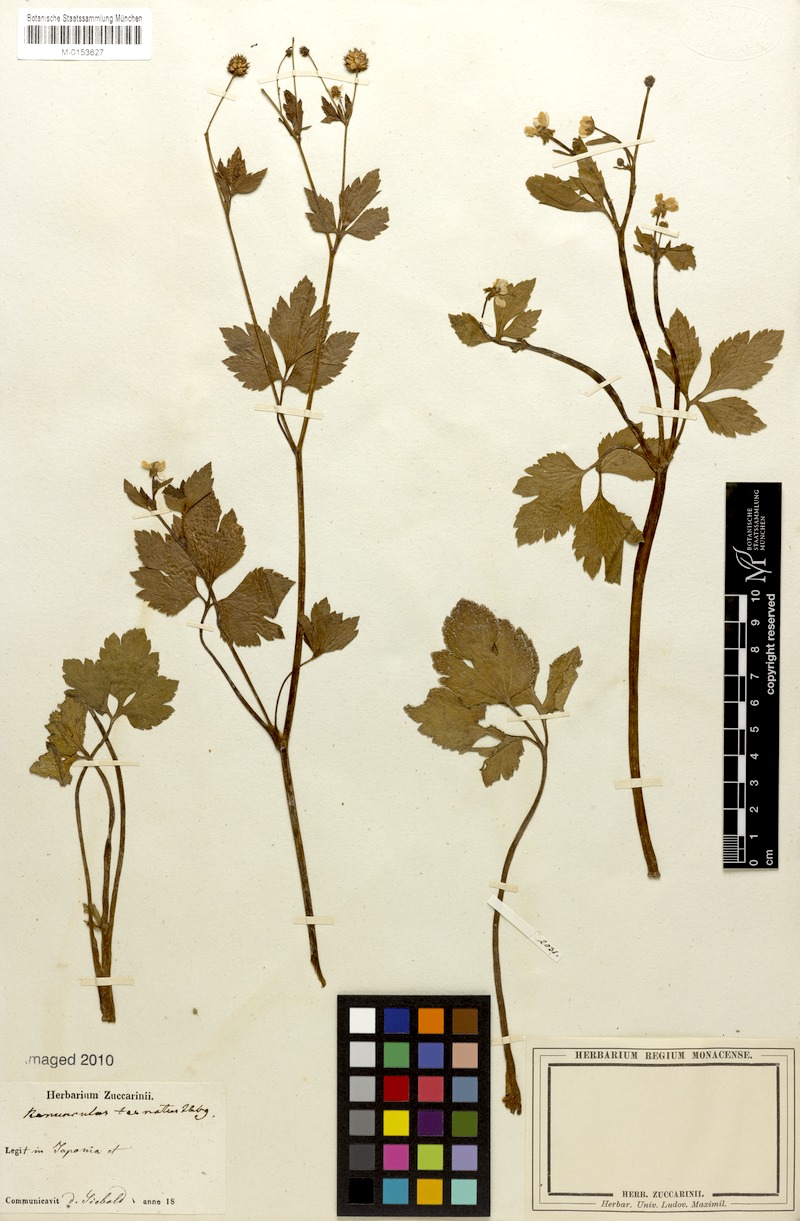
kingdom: Plantae
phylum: Tracheophyta
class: Magnoliopsida
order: Ranunculales
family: Ranunculaceae
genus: Ranunculus
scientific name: Ranunculus ternatus
